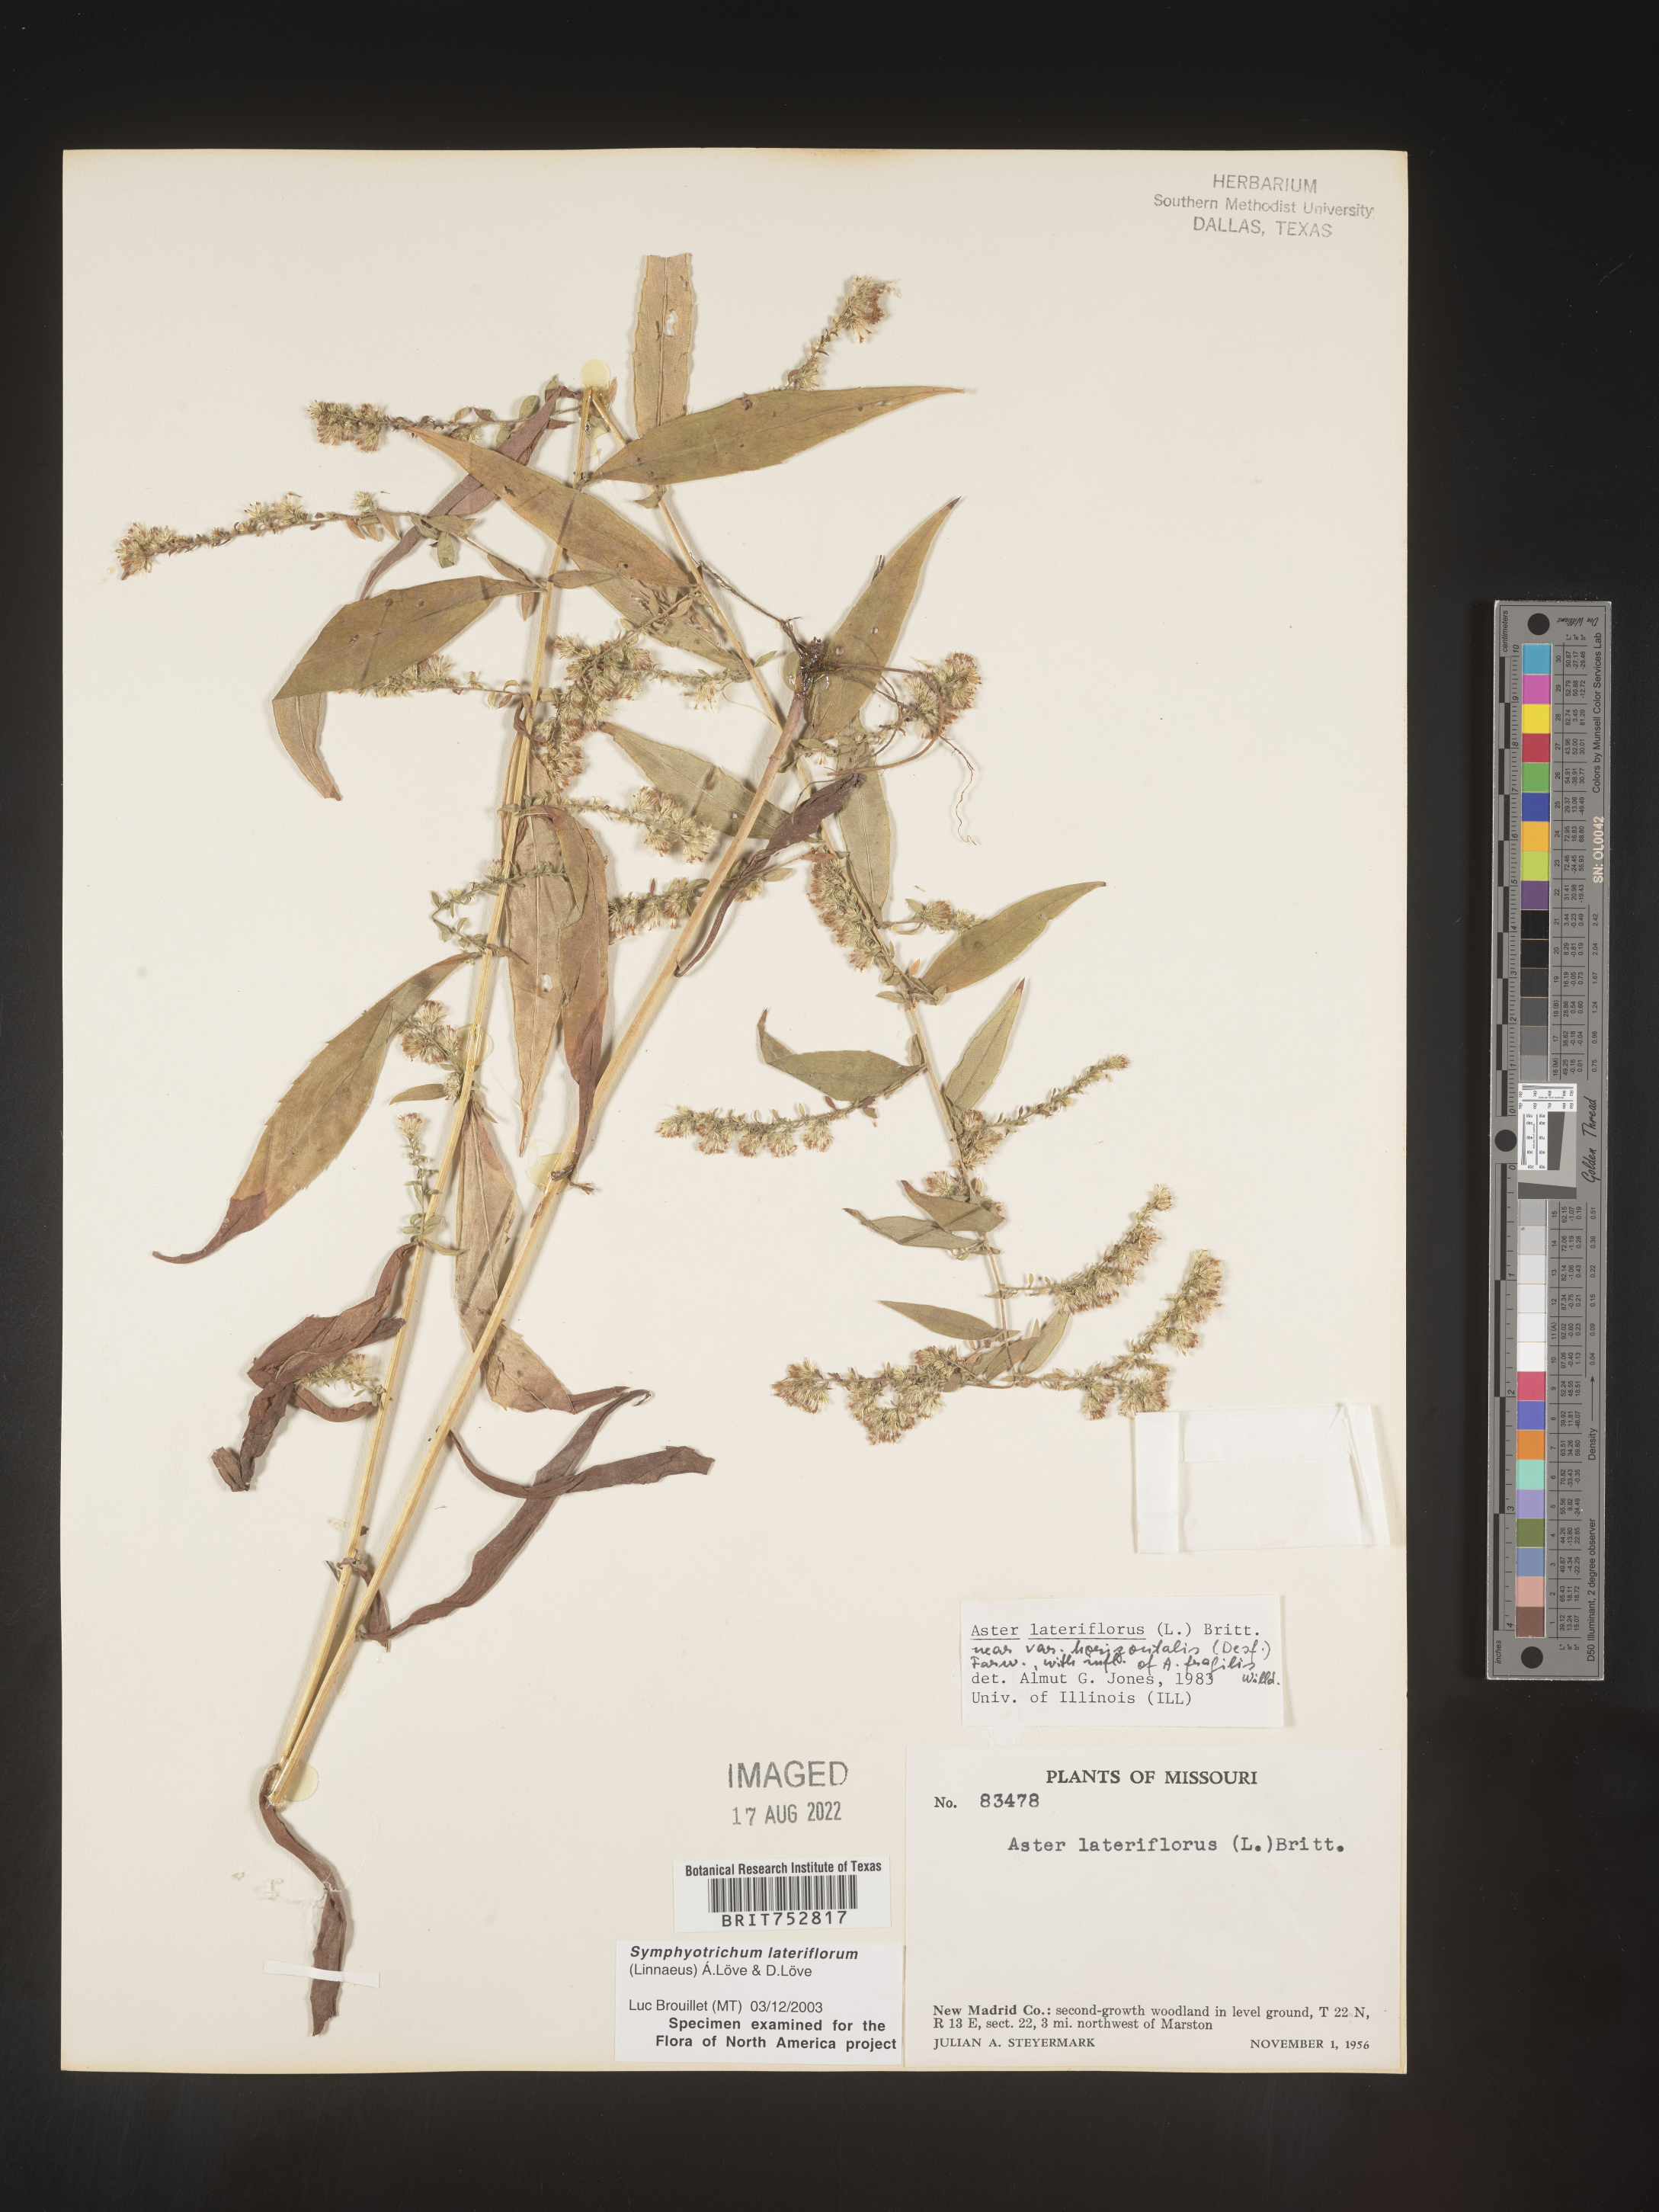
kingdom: Plantae
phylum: Tracheophyta
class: Magnoliopsida
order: Asterales
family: Asteraceae
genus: Symphyotrichum
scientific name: Symphyotrichum lateriflorum
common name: Calico aster
